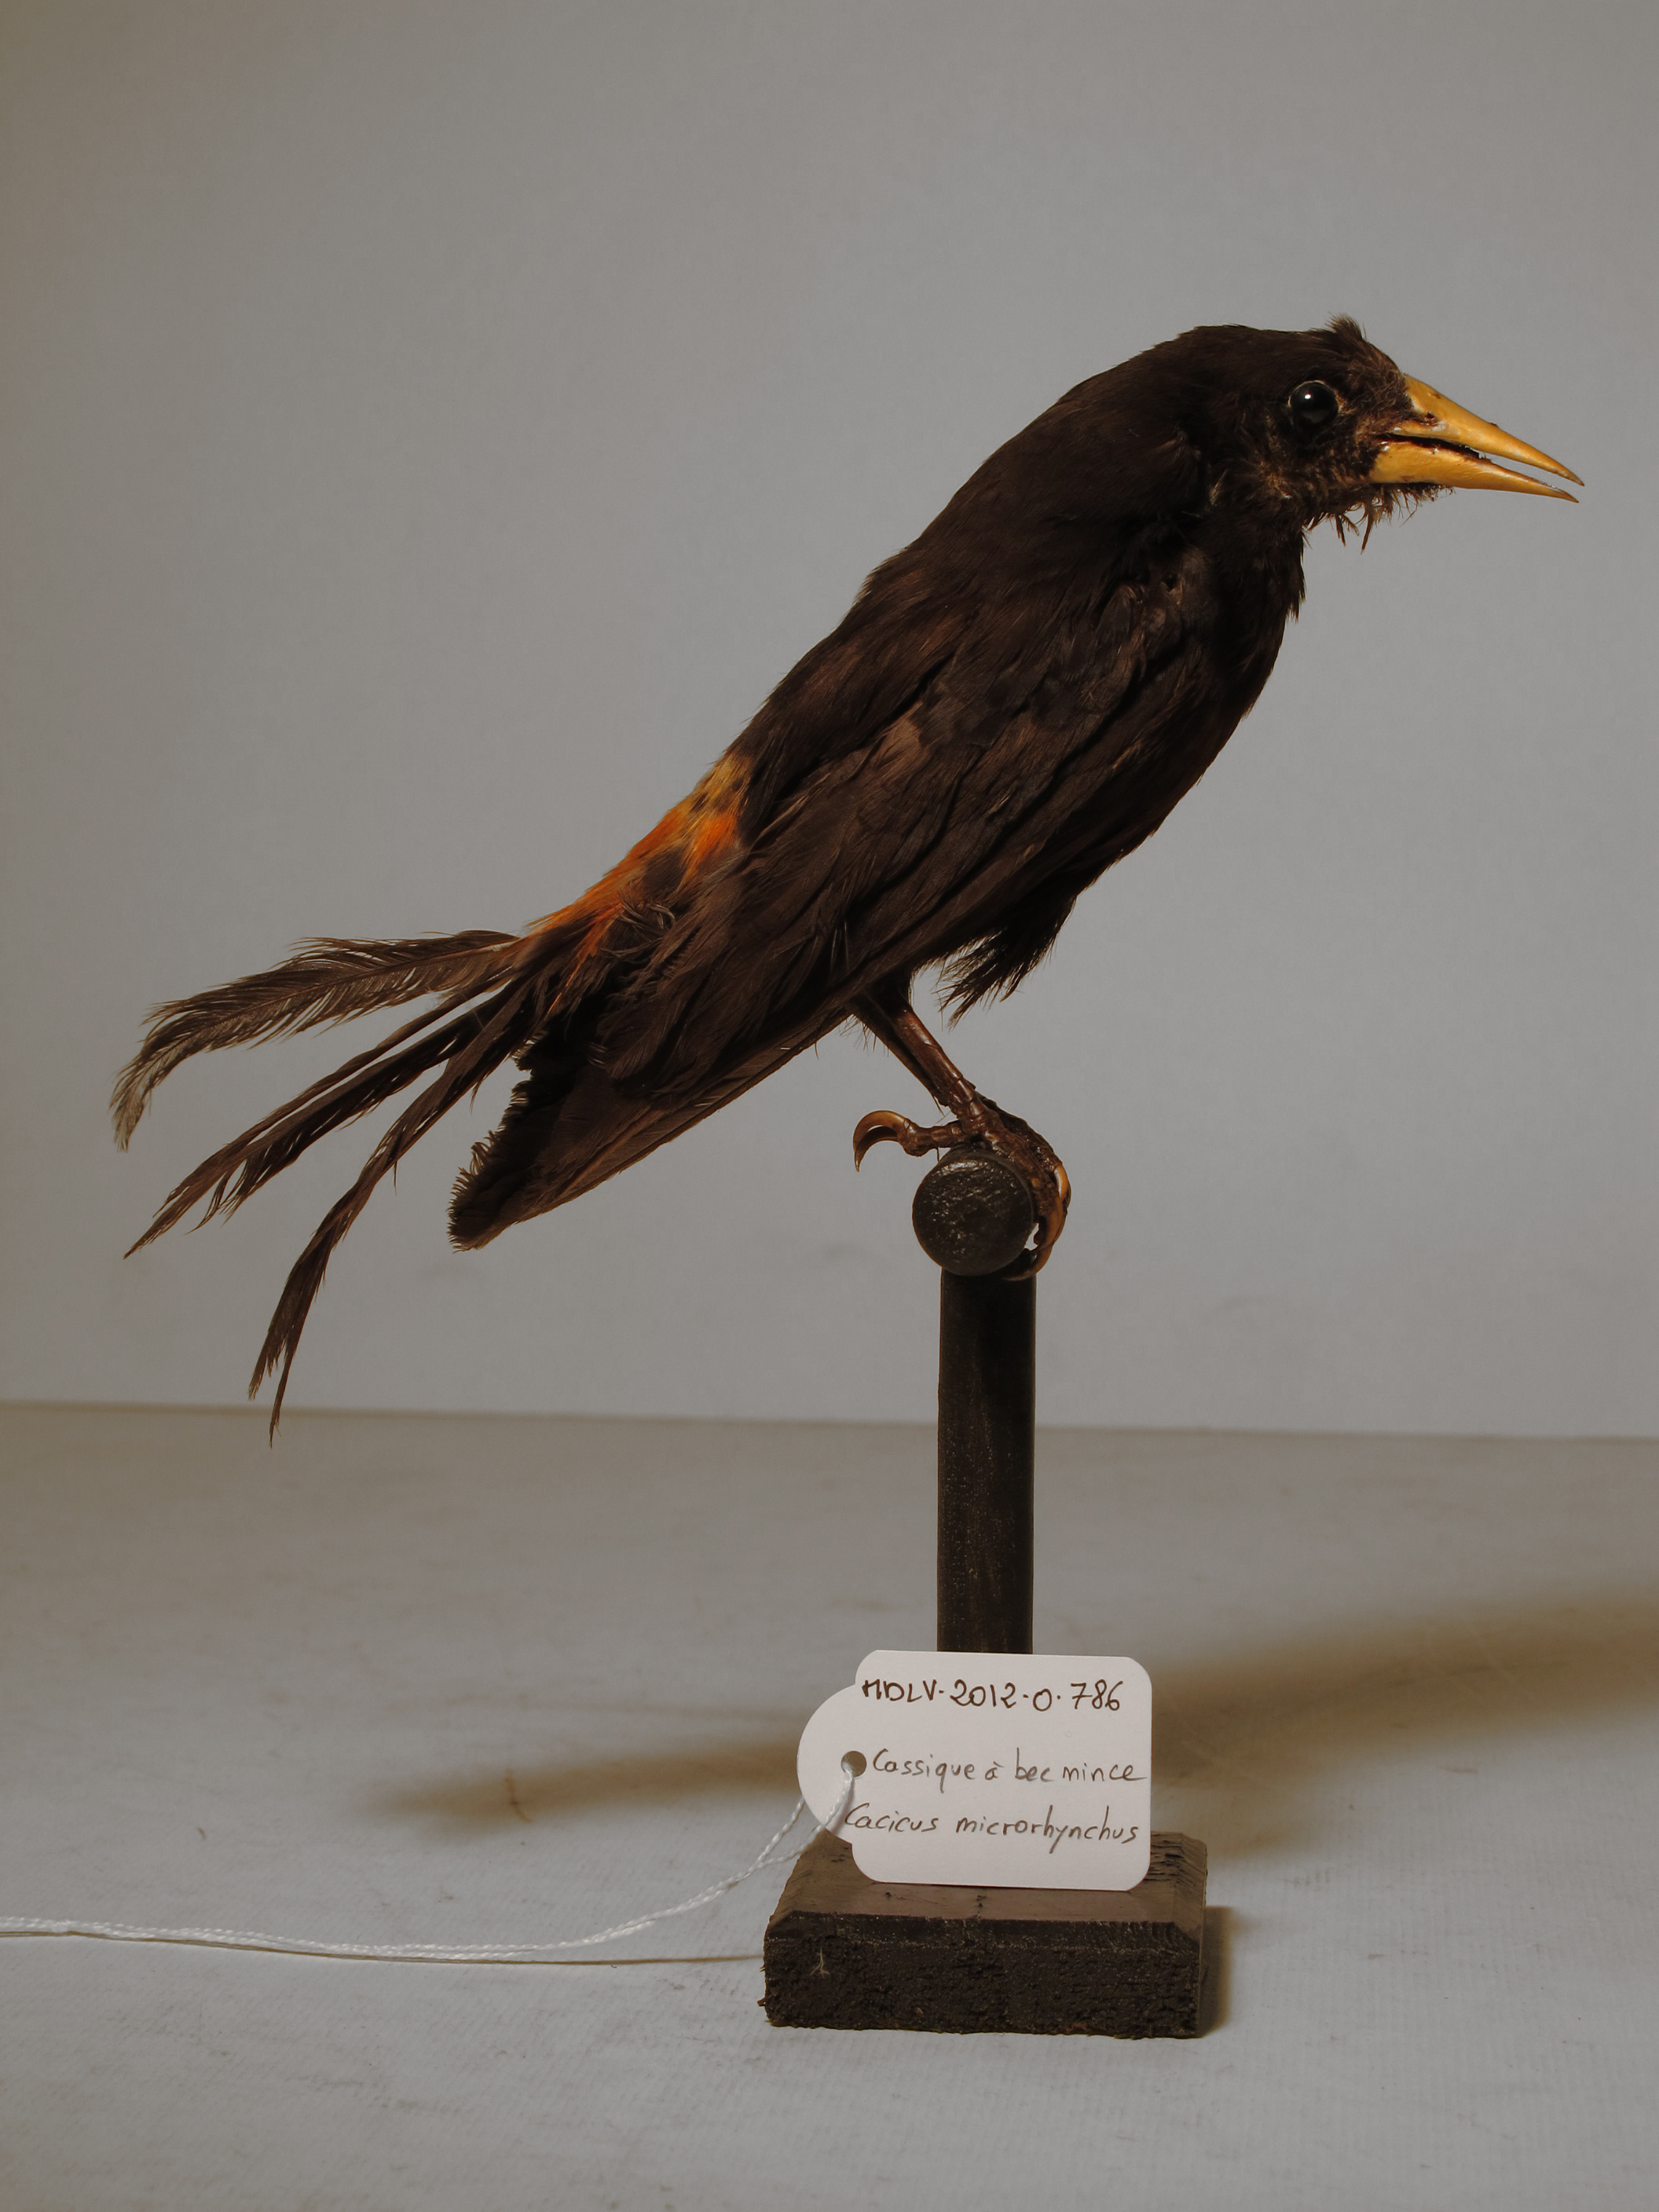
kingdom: Animalia
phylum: Chordata
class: Aves
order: Passeriformes
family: Icteridae
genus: Cacicus
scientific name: Cacicus uropygialis
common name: Scarlet-rumped Cacique
